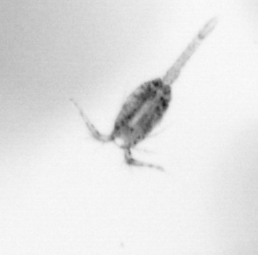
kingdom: Animalia
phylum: Arthropoda
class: Copepoda
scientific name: Copepoda
